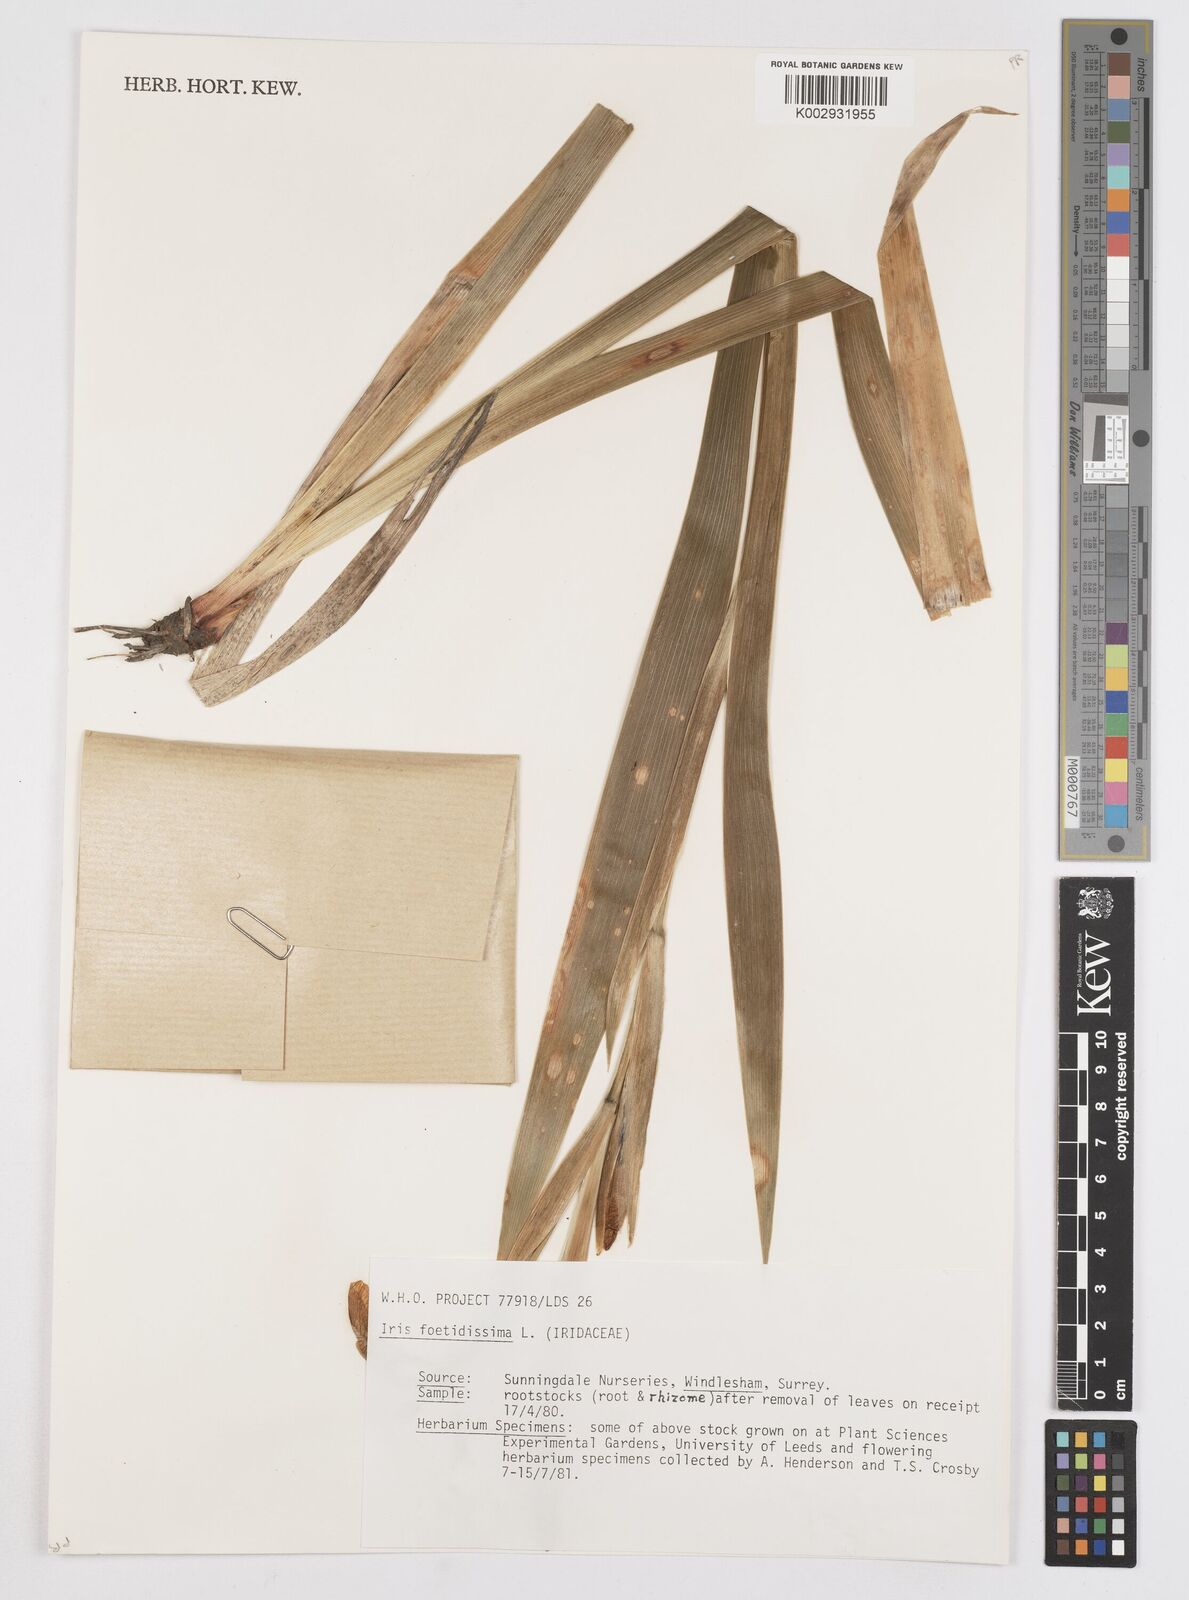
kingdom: Plantae
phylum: Tracheophyta
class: Liliopsida
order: Asparagales
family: Iridaceae
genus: Iris
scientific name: Iris foetidissima
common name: Stinking iris
